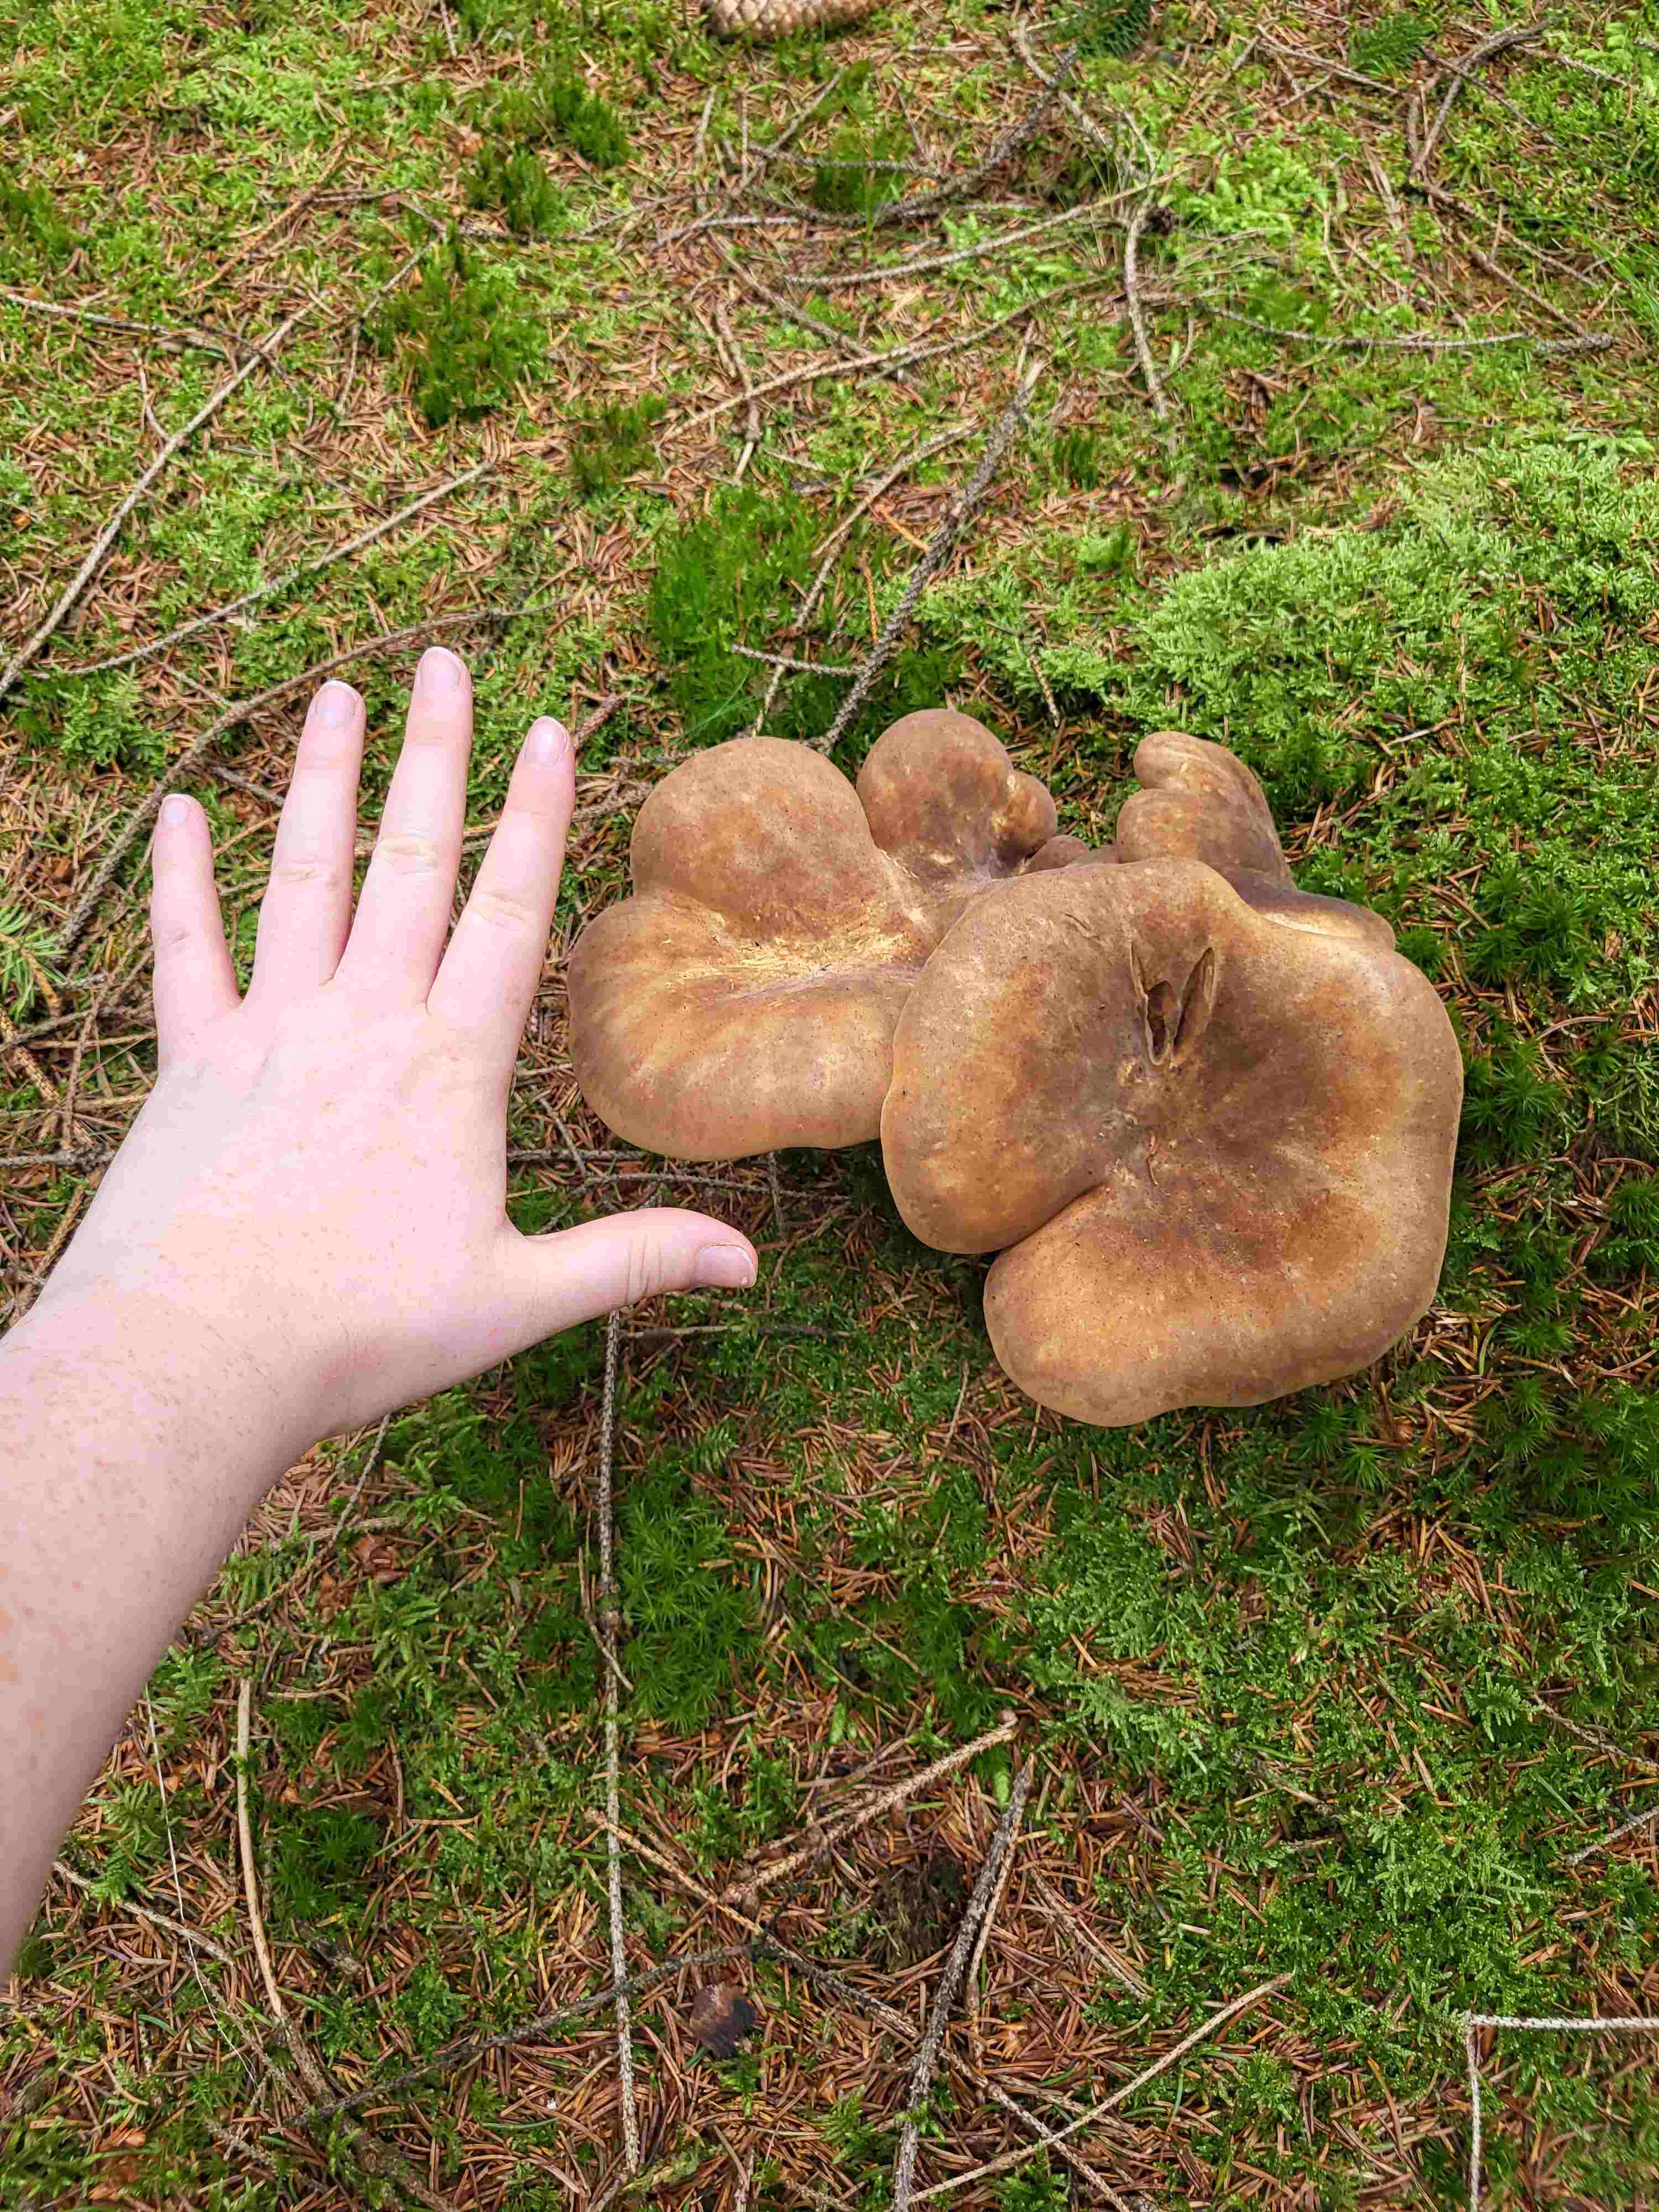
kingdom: Fungi
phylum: Basidiomycota
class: Agaricomycetes
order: Boletales
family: Tapinellaceae
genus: Tapinella
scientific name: Tapinella atrotomentosa
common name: sortfiltet viftesvamp
